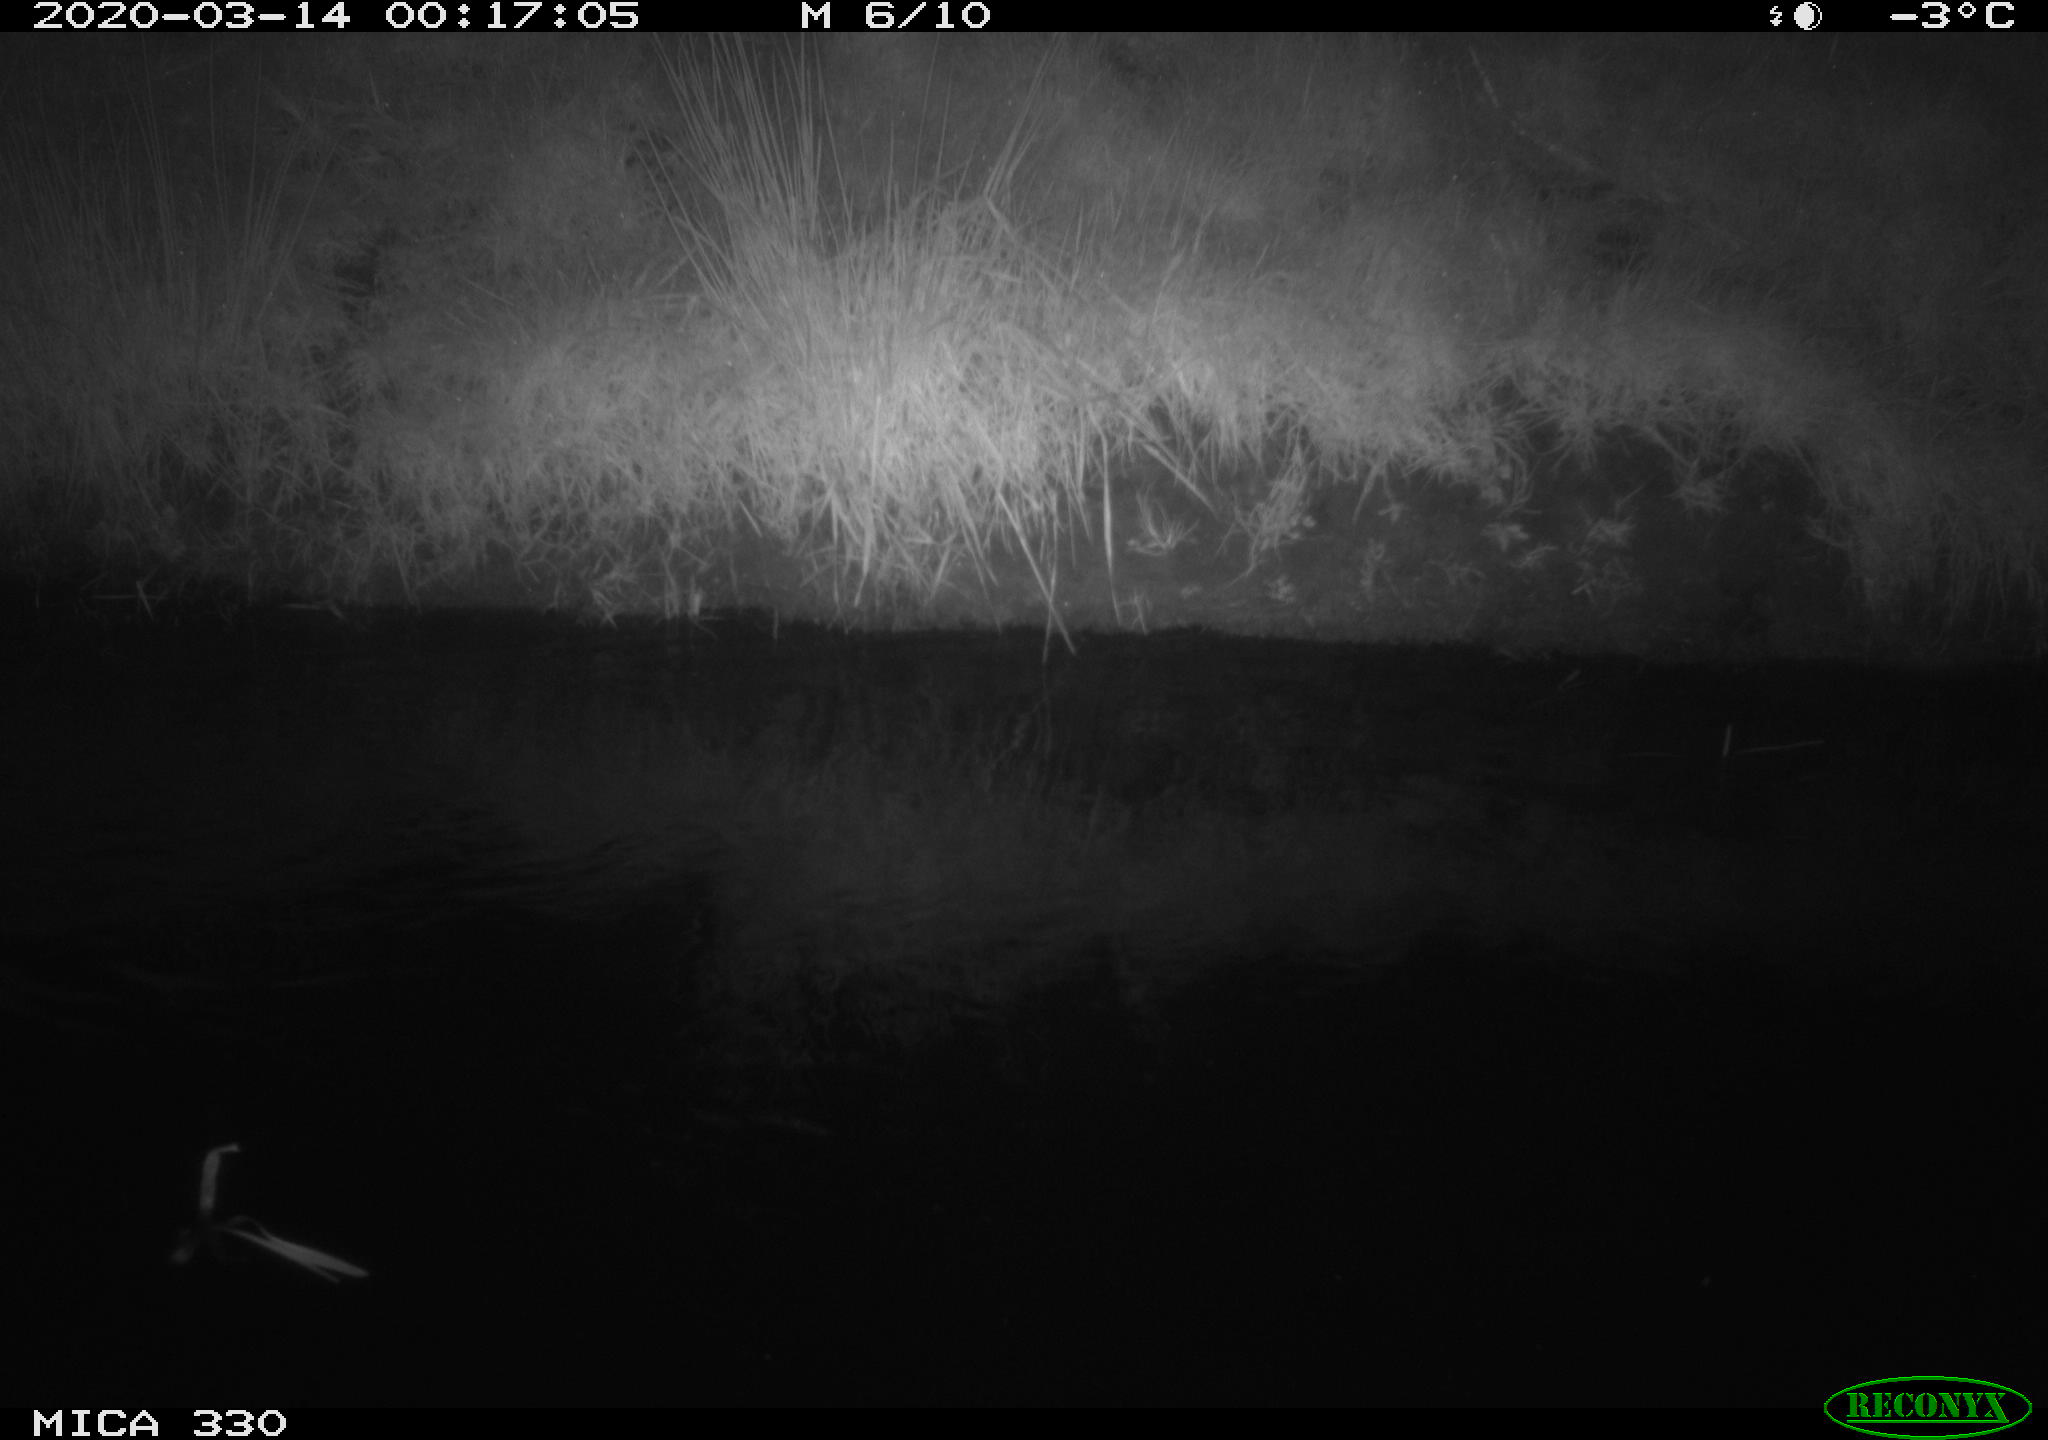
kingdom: Animalia
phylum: Chordata
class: Aves
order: Anseriformes
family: Anatidae
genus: Anas
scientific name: Anas platyrhynchos
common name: Mallard
